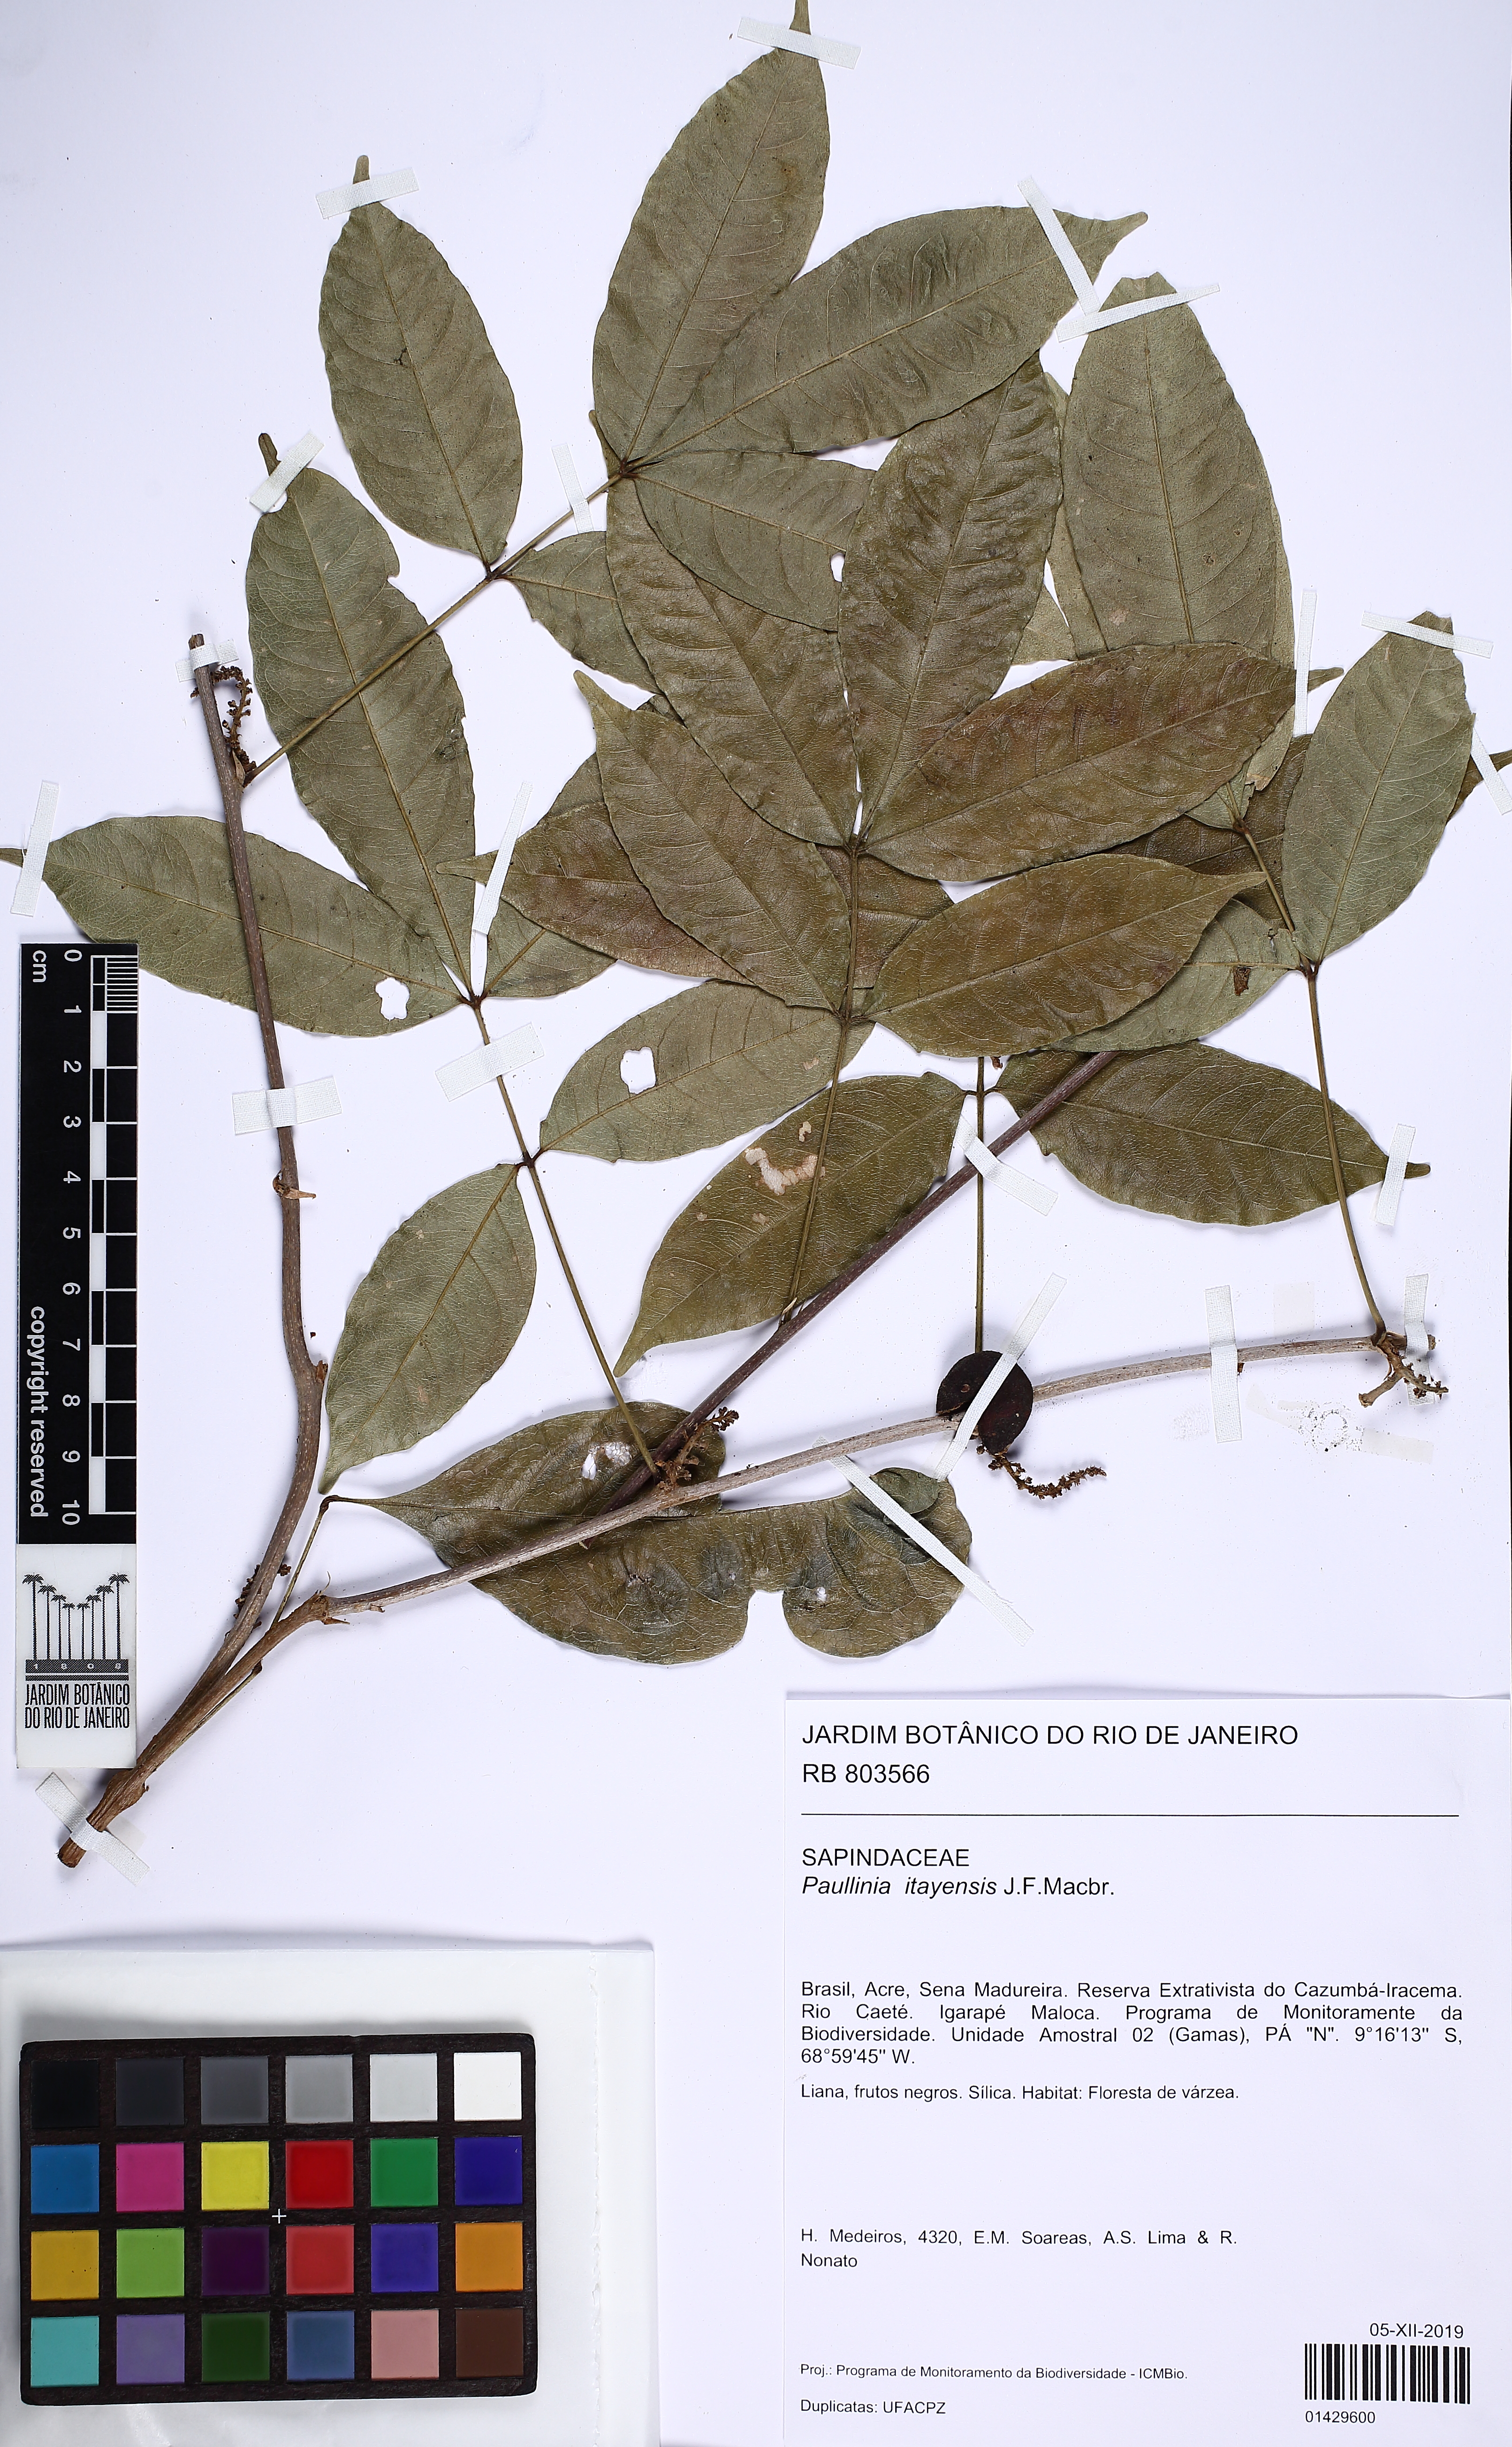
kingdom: Plantae
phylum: Tracheophyta
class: Magnoliopsida
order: Sapindales
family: Sapindaceae
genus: Paullinia
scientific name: Paullinia reticulata
